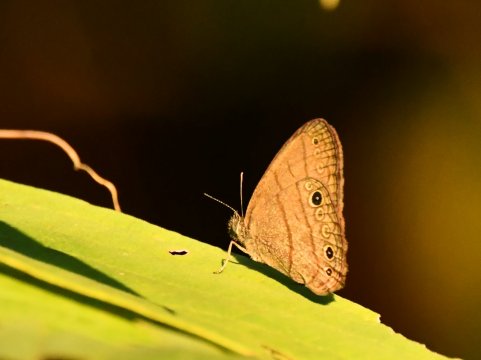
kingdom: Animalia
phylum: Arthropoda
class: Insecta
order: Lepidoptera
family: Nymphalidae
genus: Hermeuptychia
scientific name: Hermeuptychia hermes
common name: Hermes Satyr
